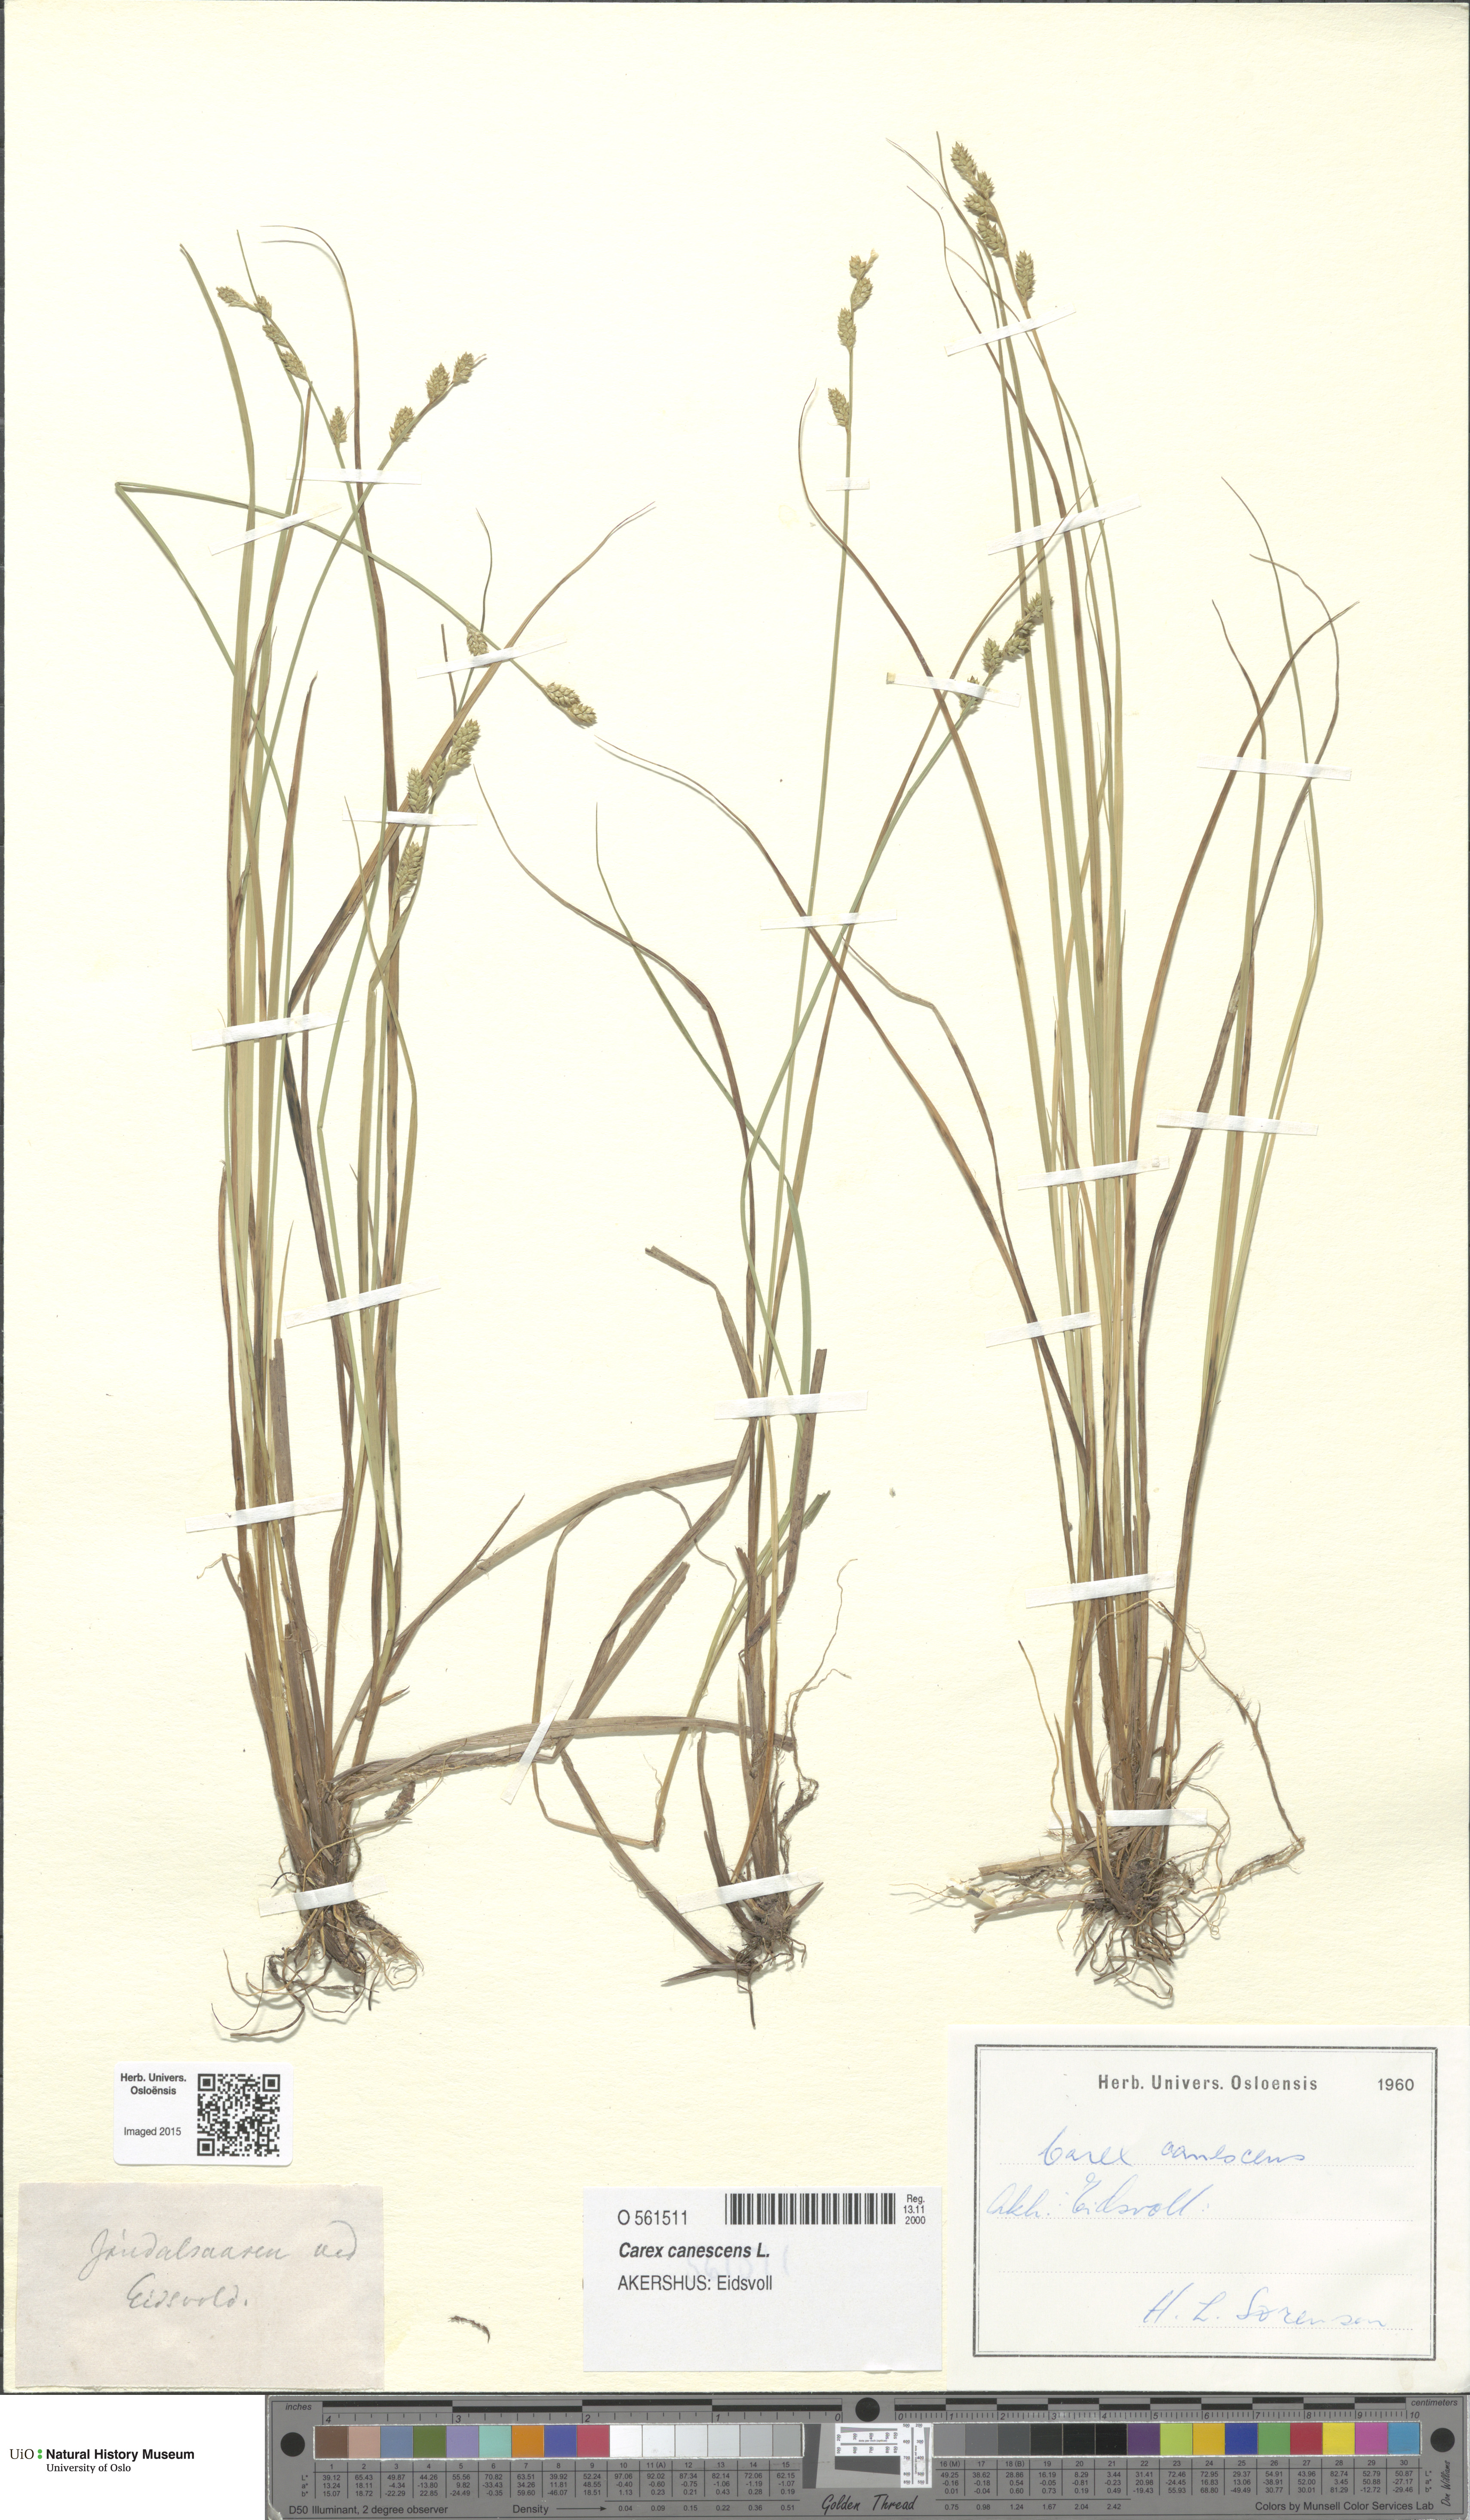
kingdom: Plantae
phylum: Tracheophyta
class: Liliopsida
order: Poales
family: Cyperaceae
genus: Carex
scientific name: Carex canescens
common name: White sedge
